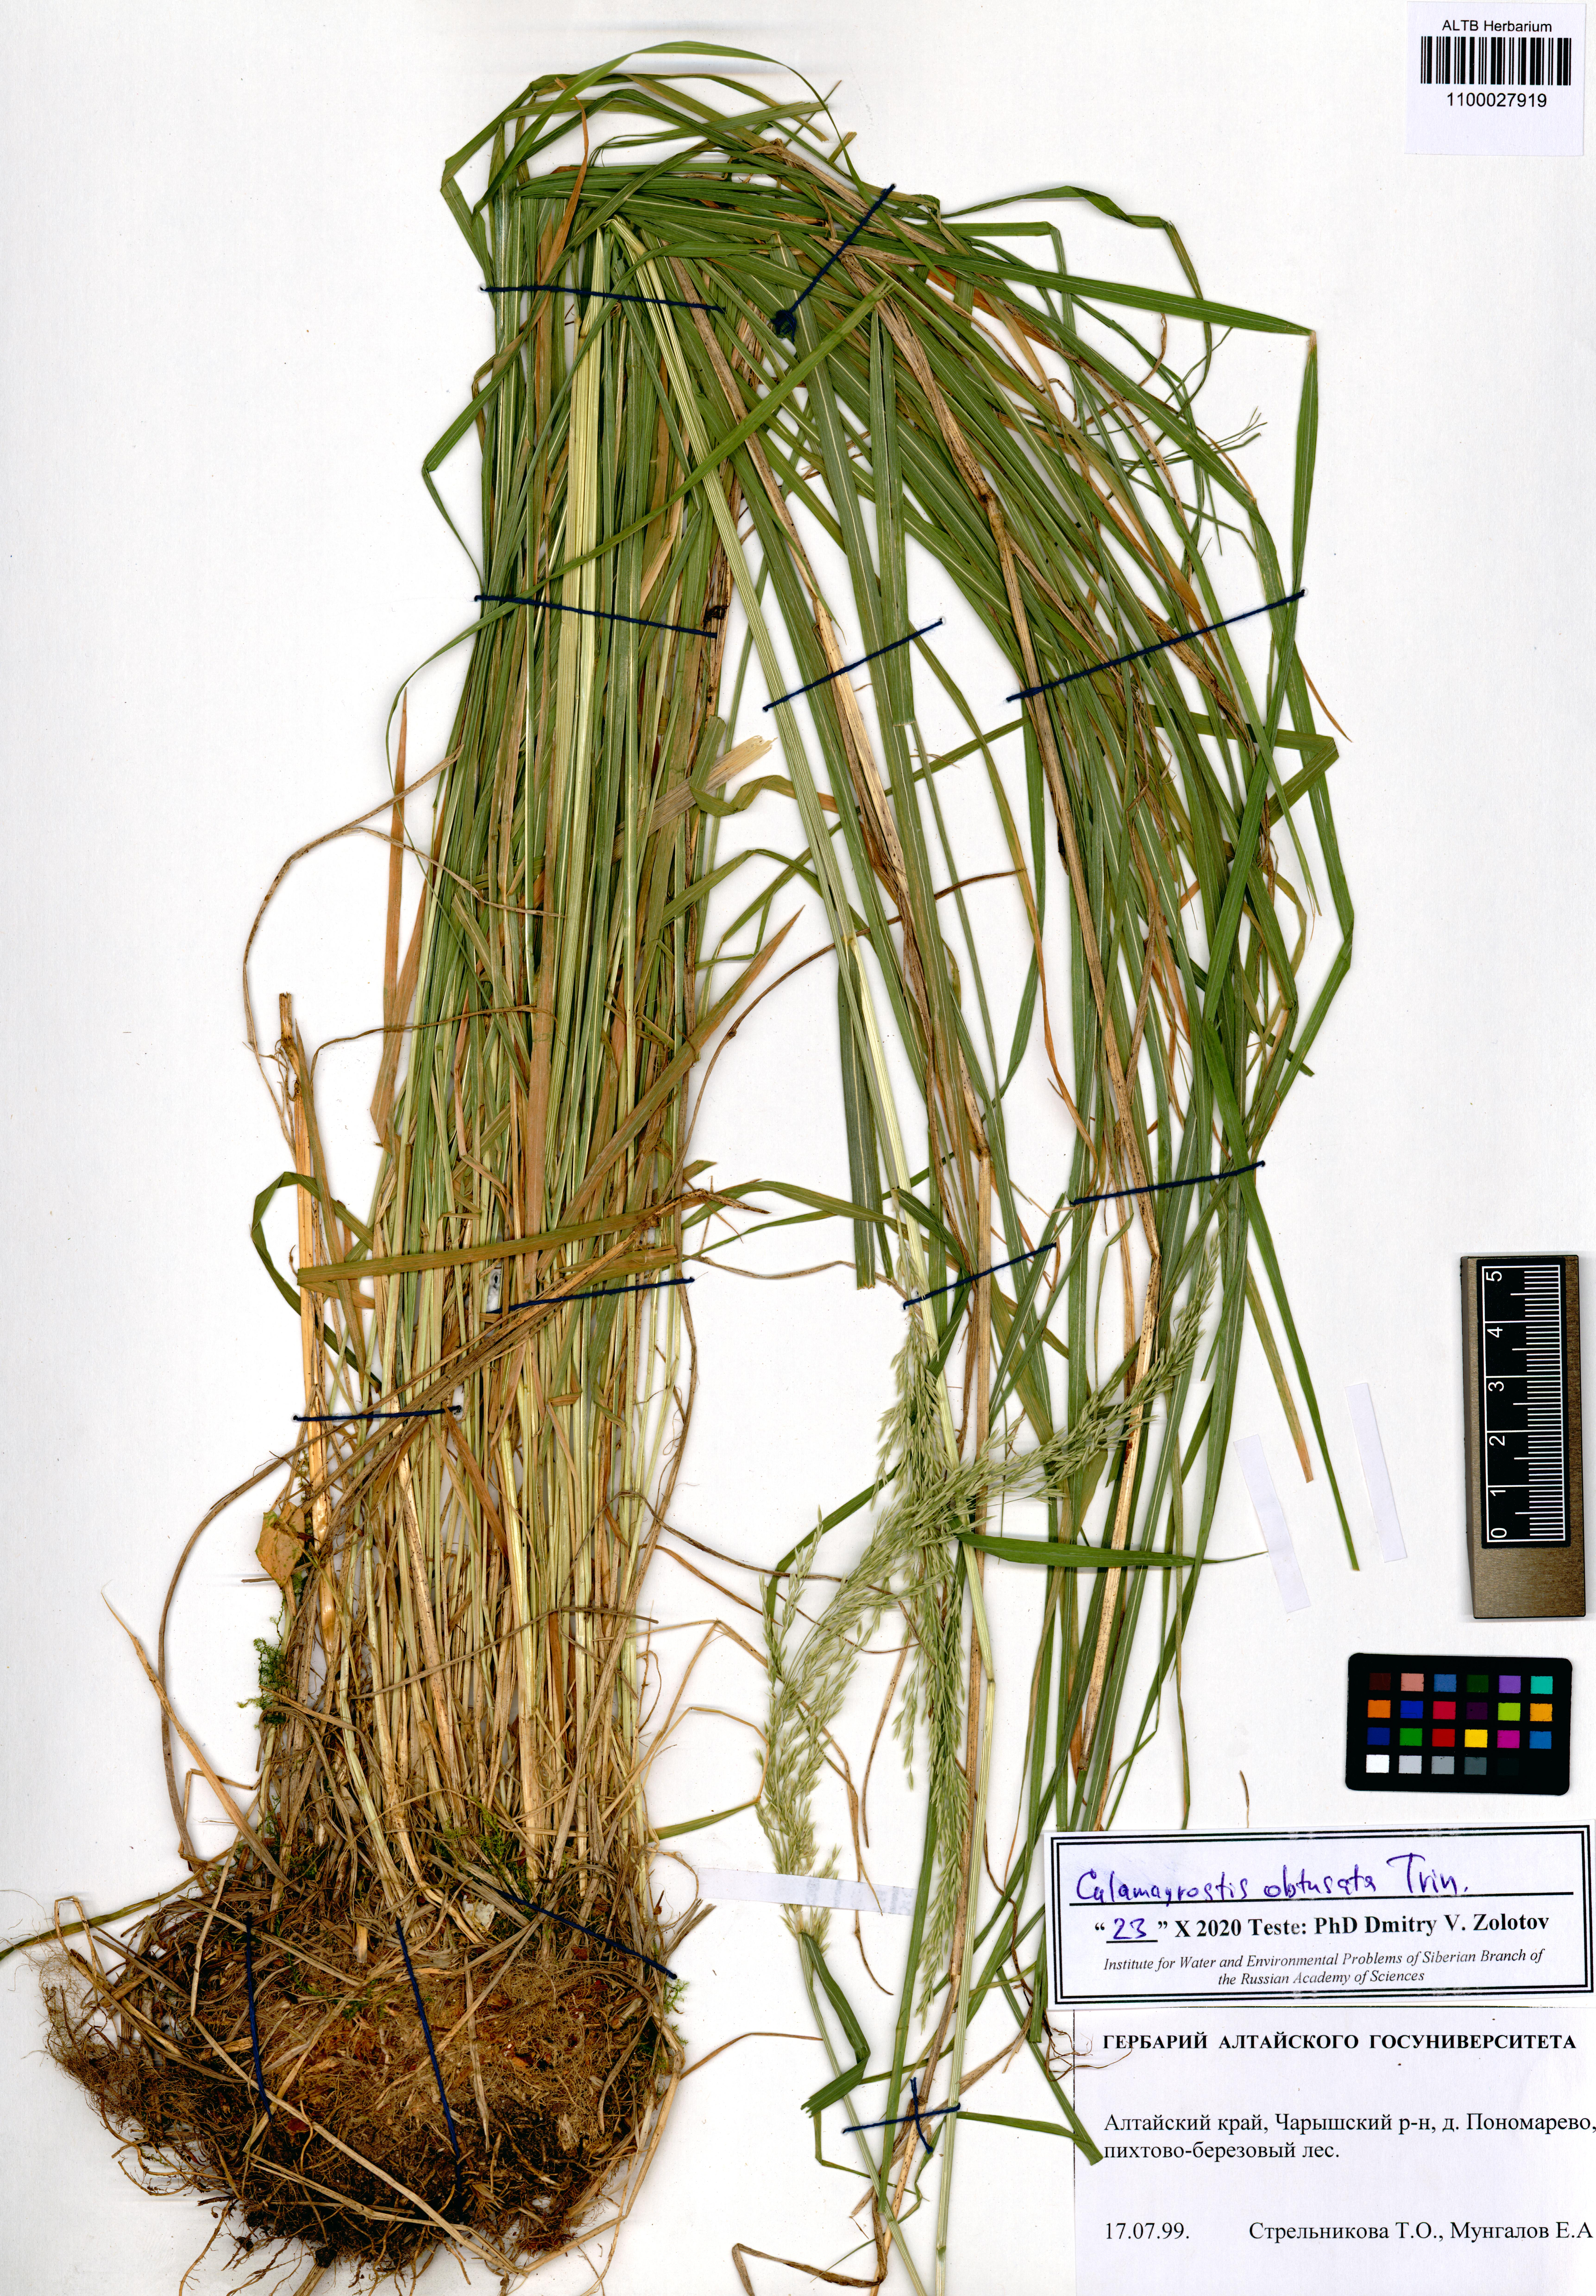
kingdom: Plantae
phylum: Tracheophyta
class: Liliopsida
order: Poales
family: Poaceae
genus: Calamagrostis
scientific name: Calamagrostis obtusata
